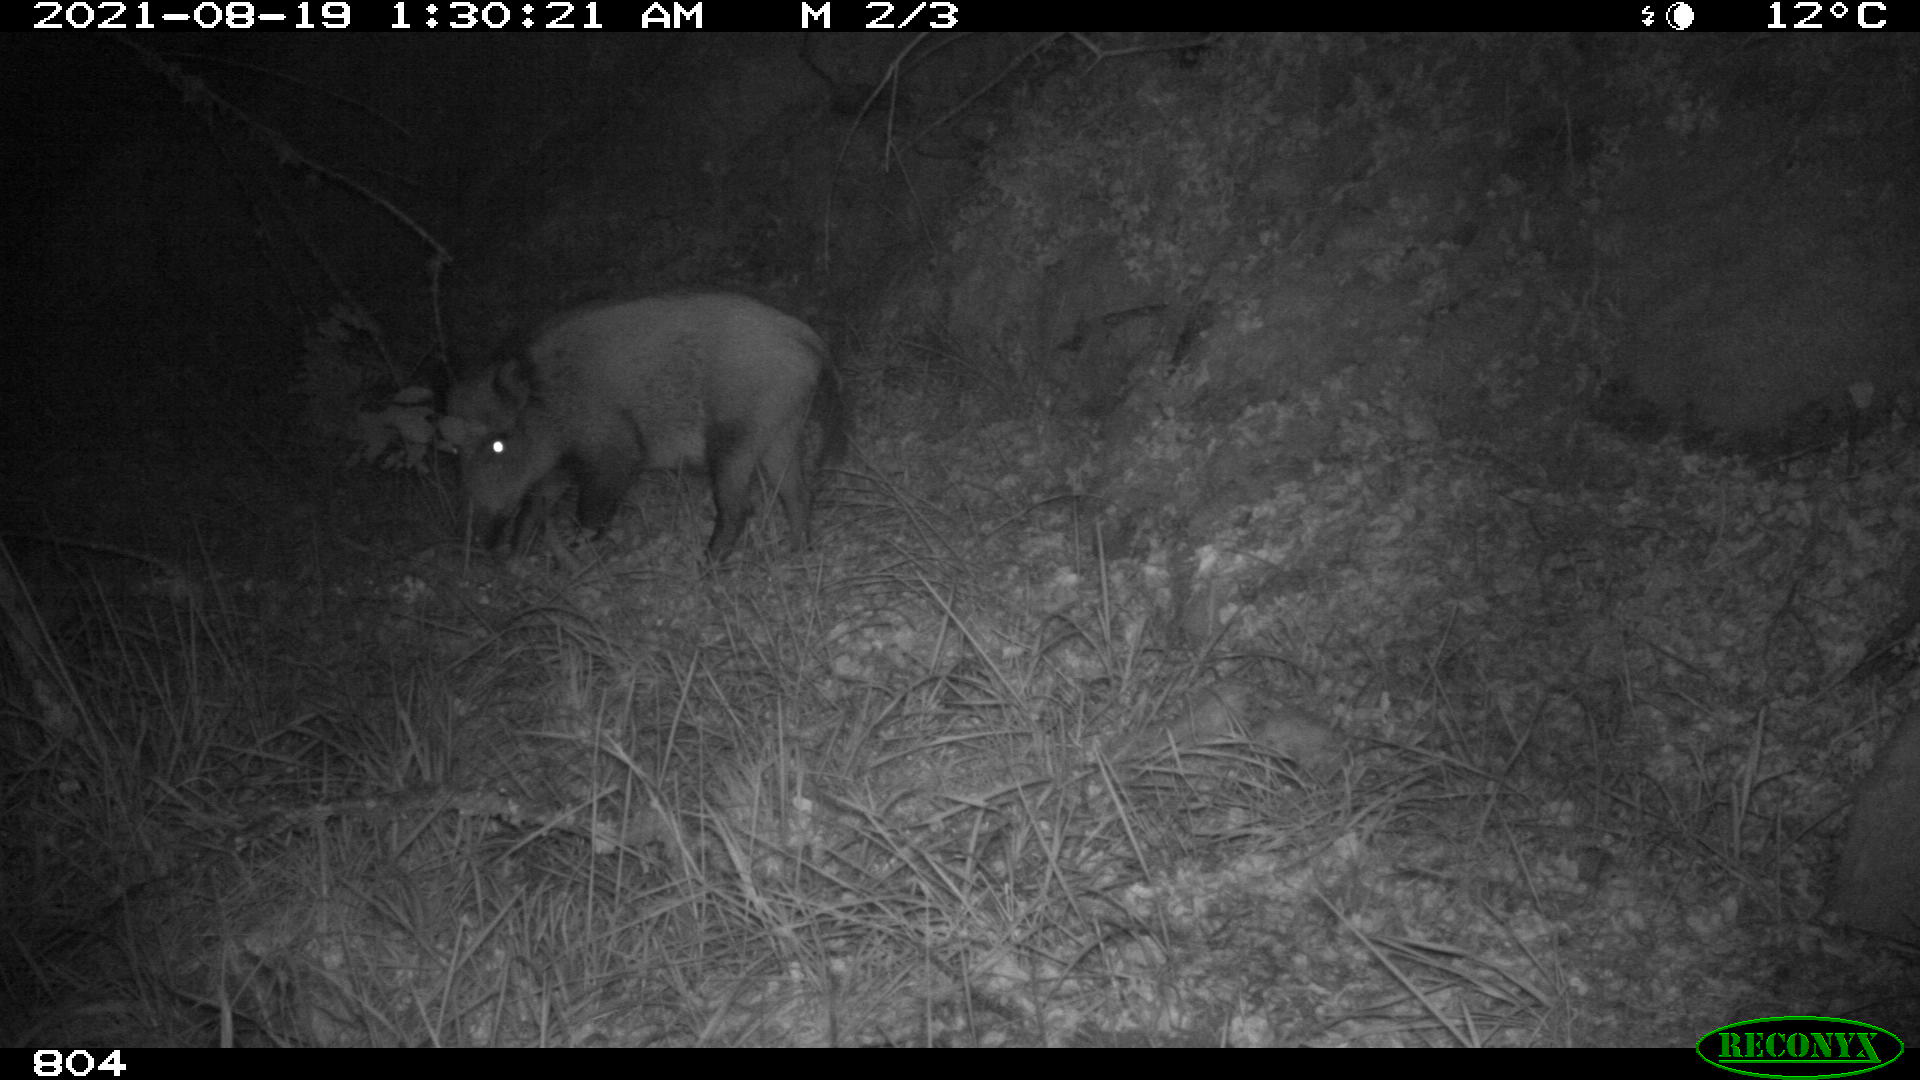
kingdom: Animalia
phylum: Chordata
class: Mammalia
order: Artiodactyla
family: Suidae
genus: Sus
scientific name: Sus scrofa
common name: Wild boar
